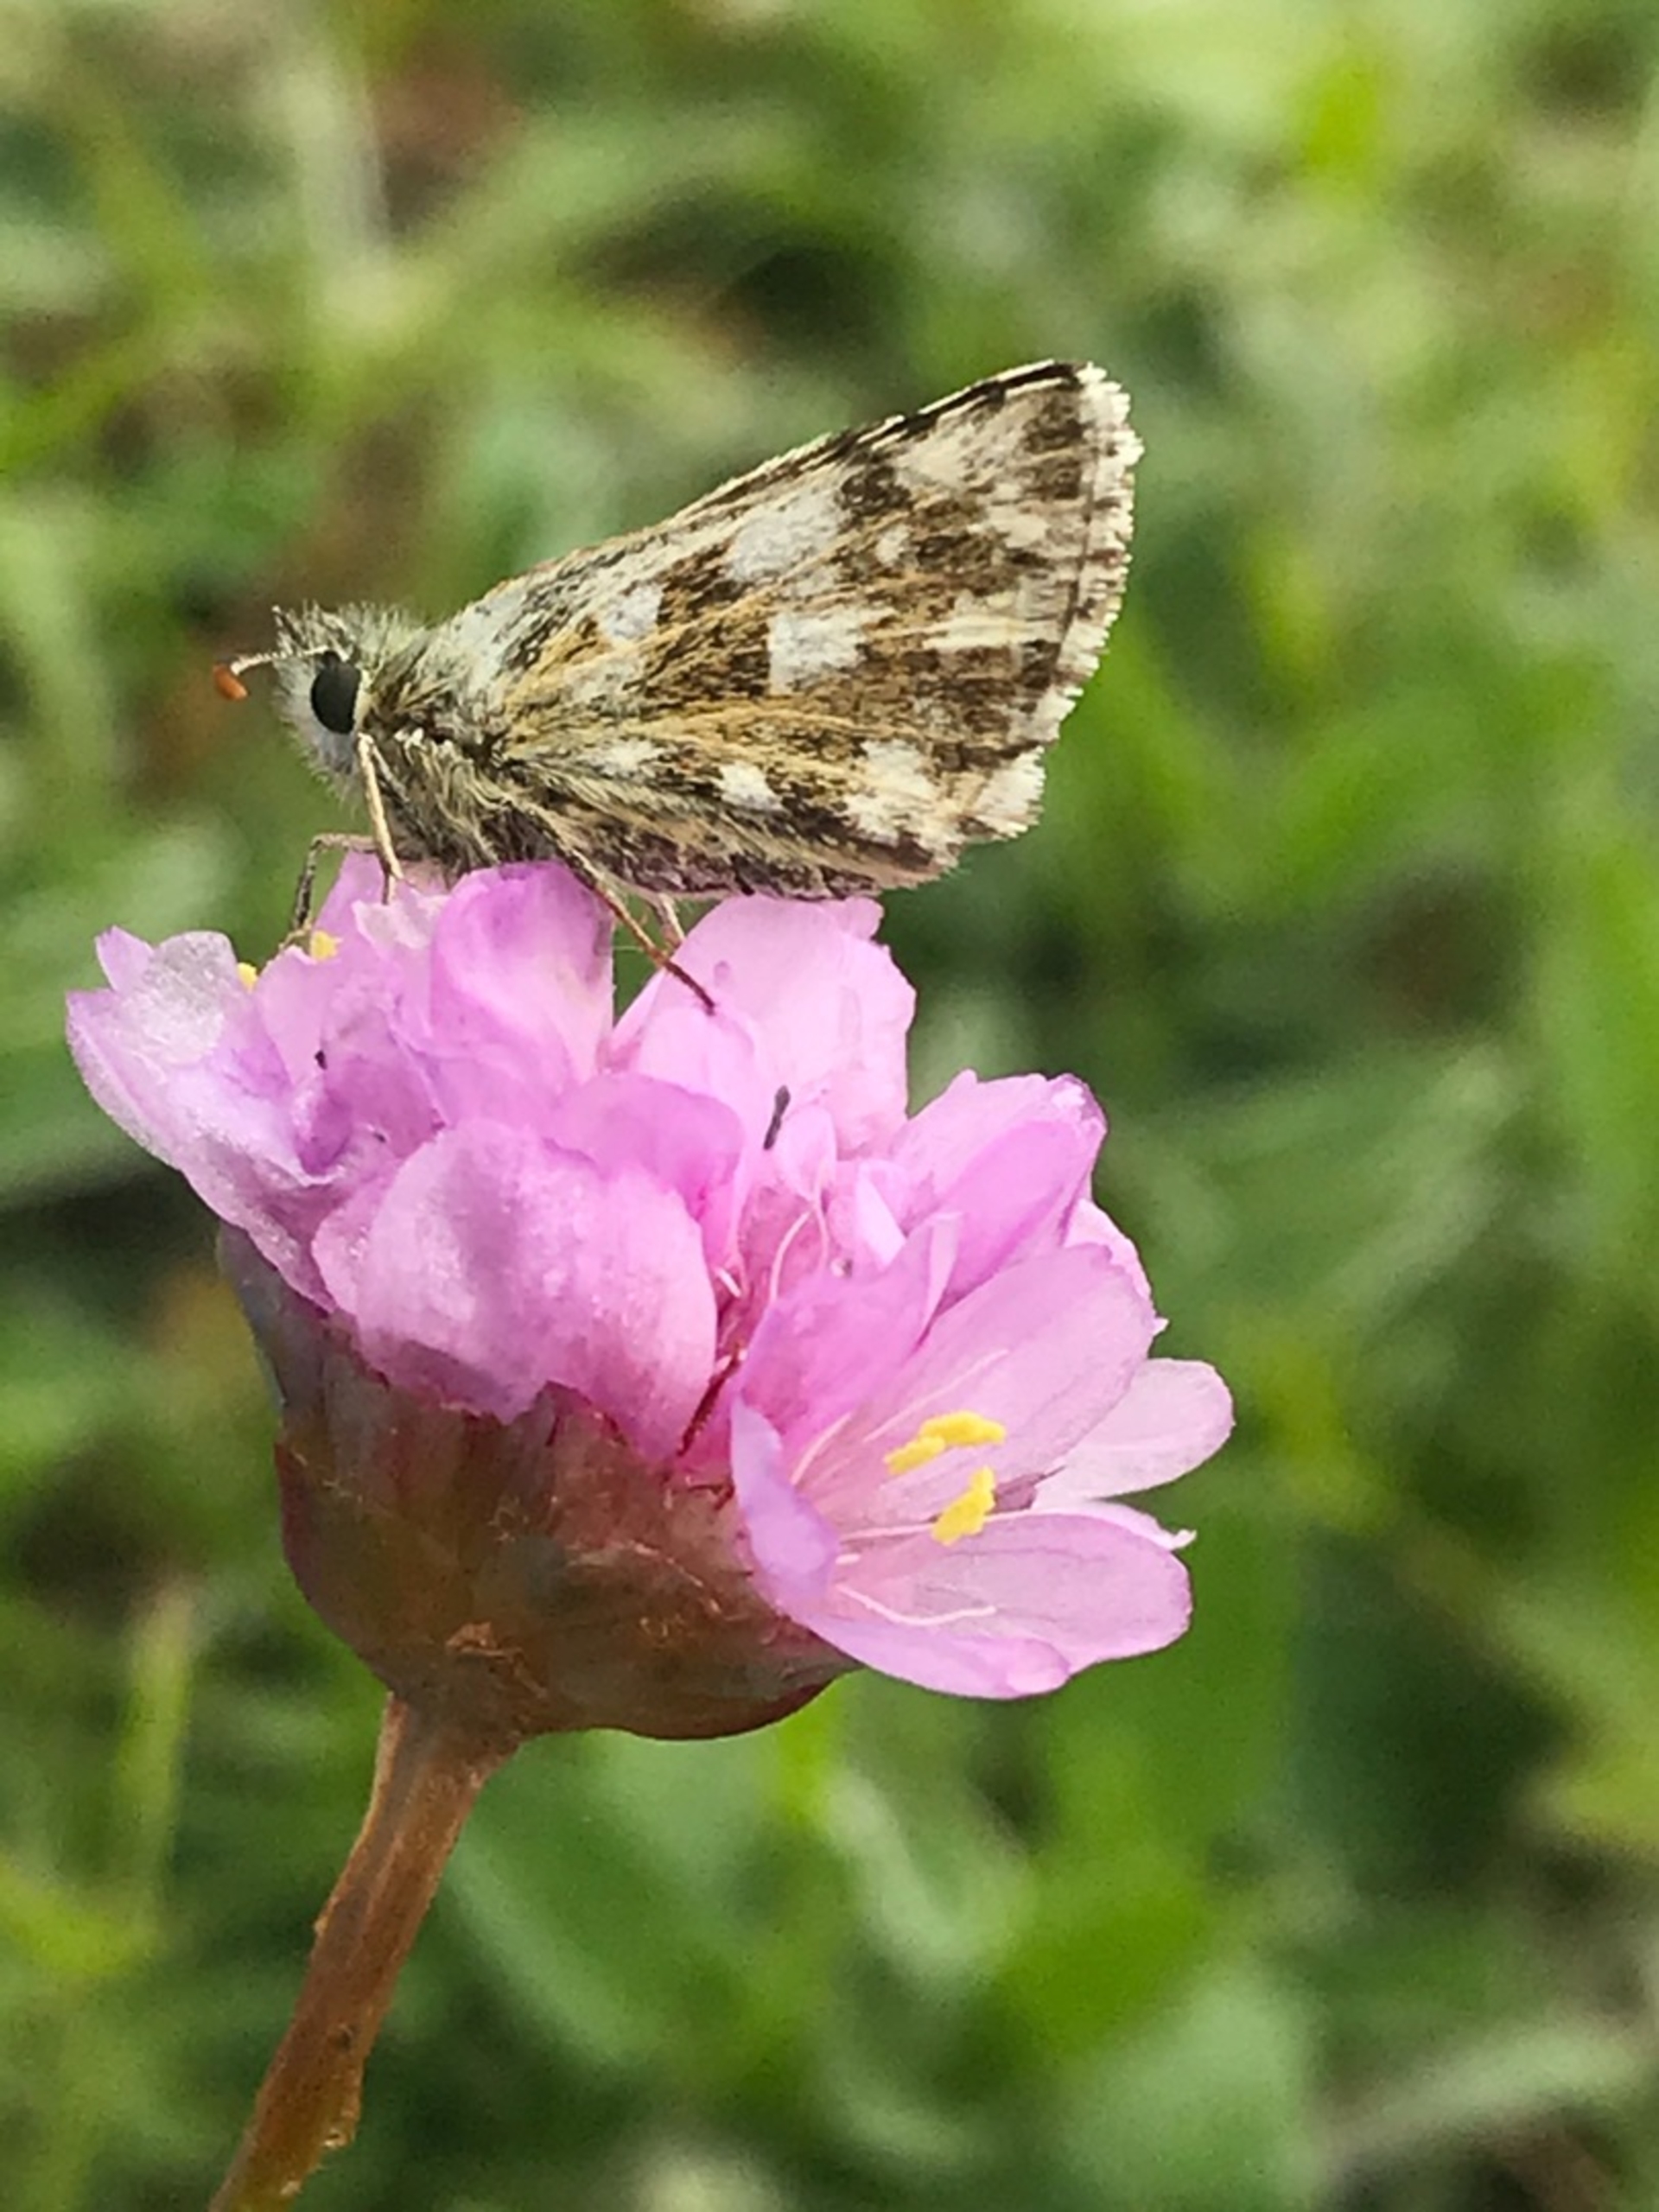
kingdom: Animalia
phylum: Arthropoda
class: Insecta
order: Lepidoptera
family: Hesperiidae
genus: Pyrgus
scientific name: Pyrgus armoricanus
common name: Fransk bredpande
